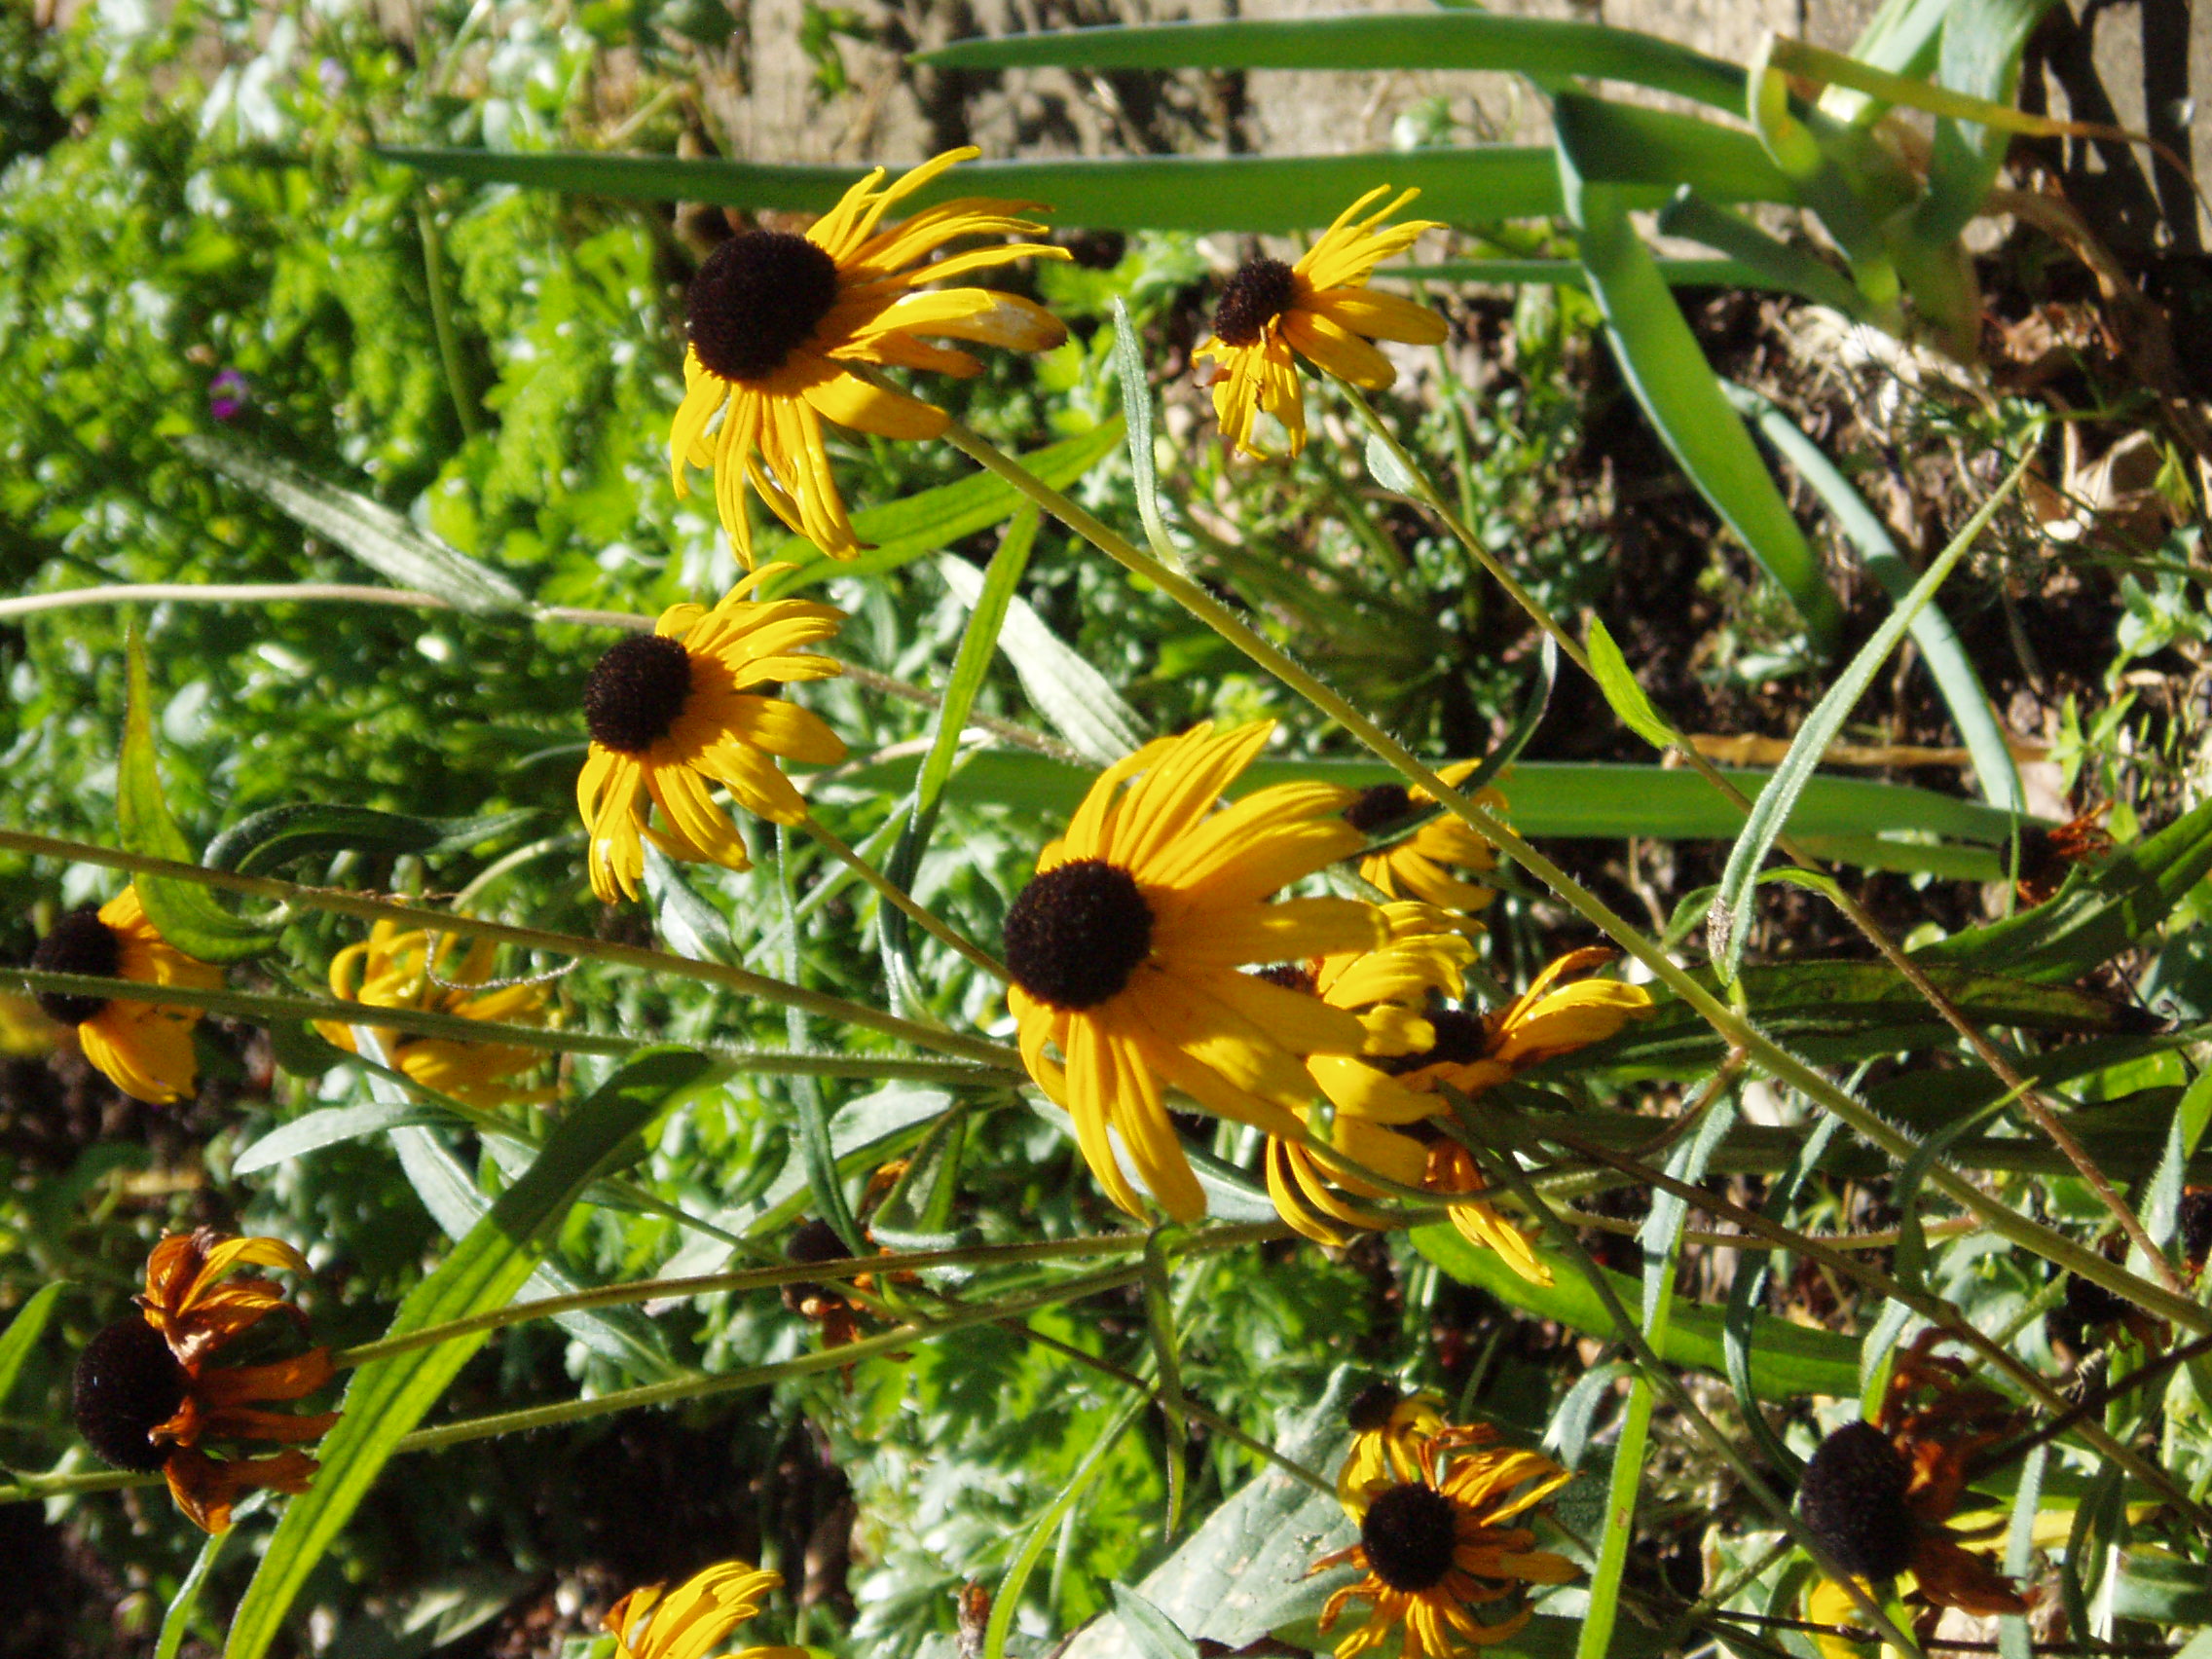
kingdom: Plantae
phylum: Tracheophyta
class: Magnoliopsida
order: Asterales
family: Asteraceae
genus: Rudbeckia
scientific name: Rudbeckia speciosa
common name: Showy coneflower
